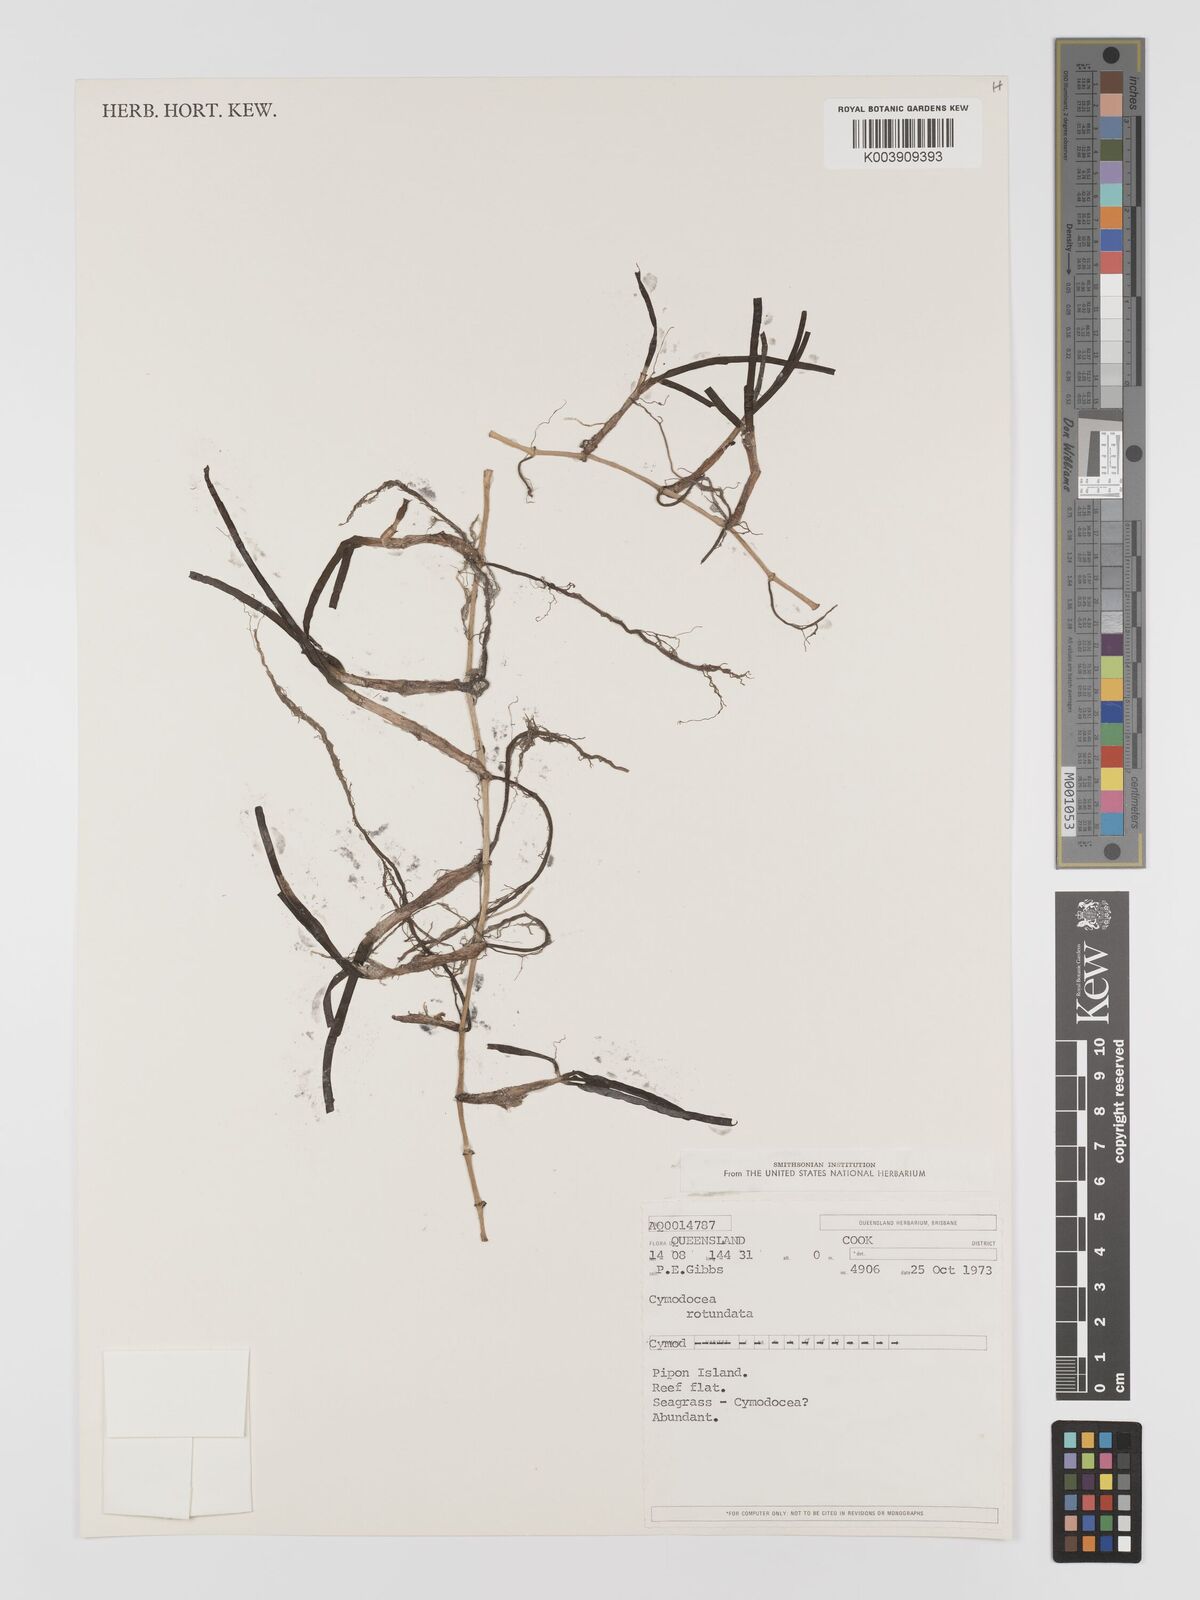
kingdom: Plantae
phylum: Tracheophyta
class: Liliopsida
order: Alismatales
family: Cymodoceaceae
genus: Cymodocea
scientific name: Cymodocea rotundata
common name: Species code: cr
